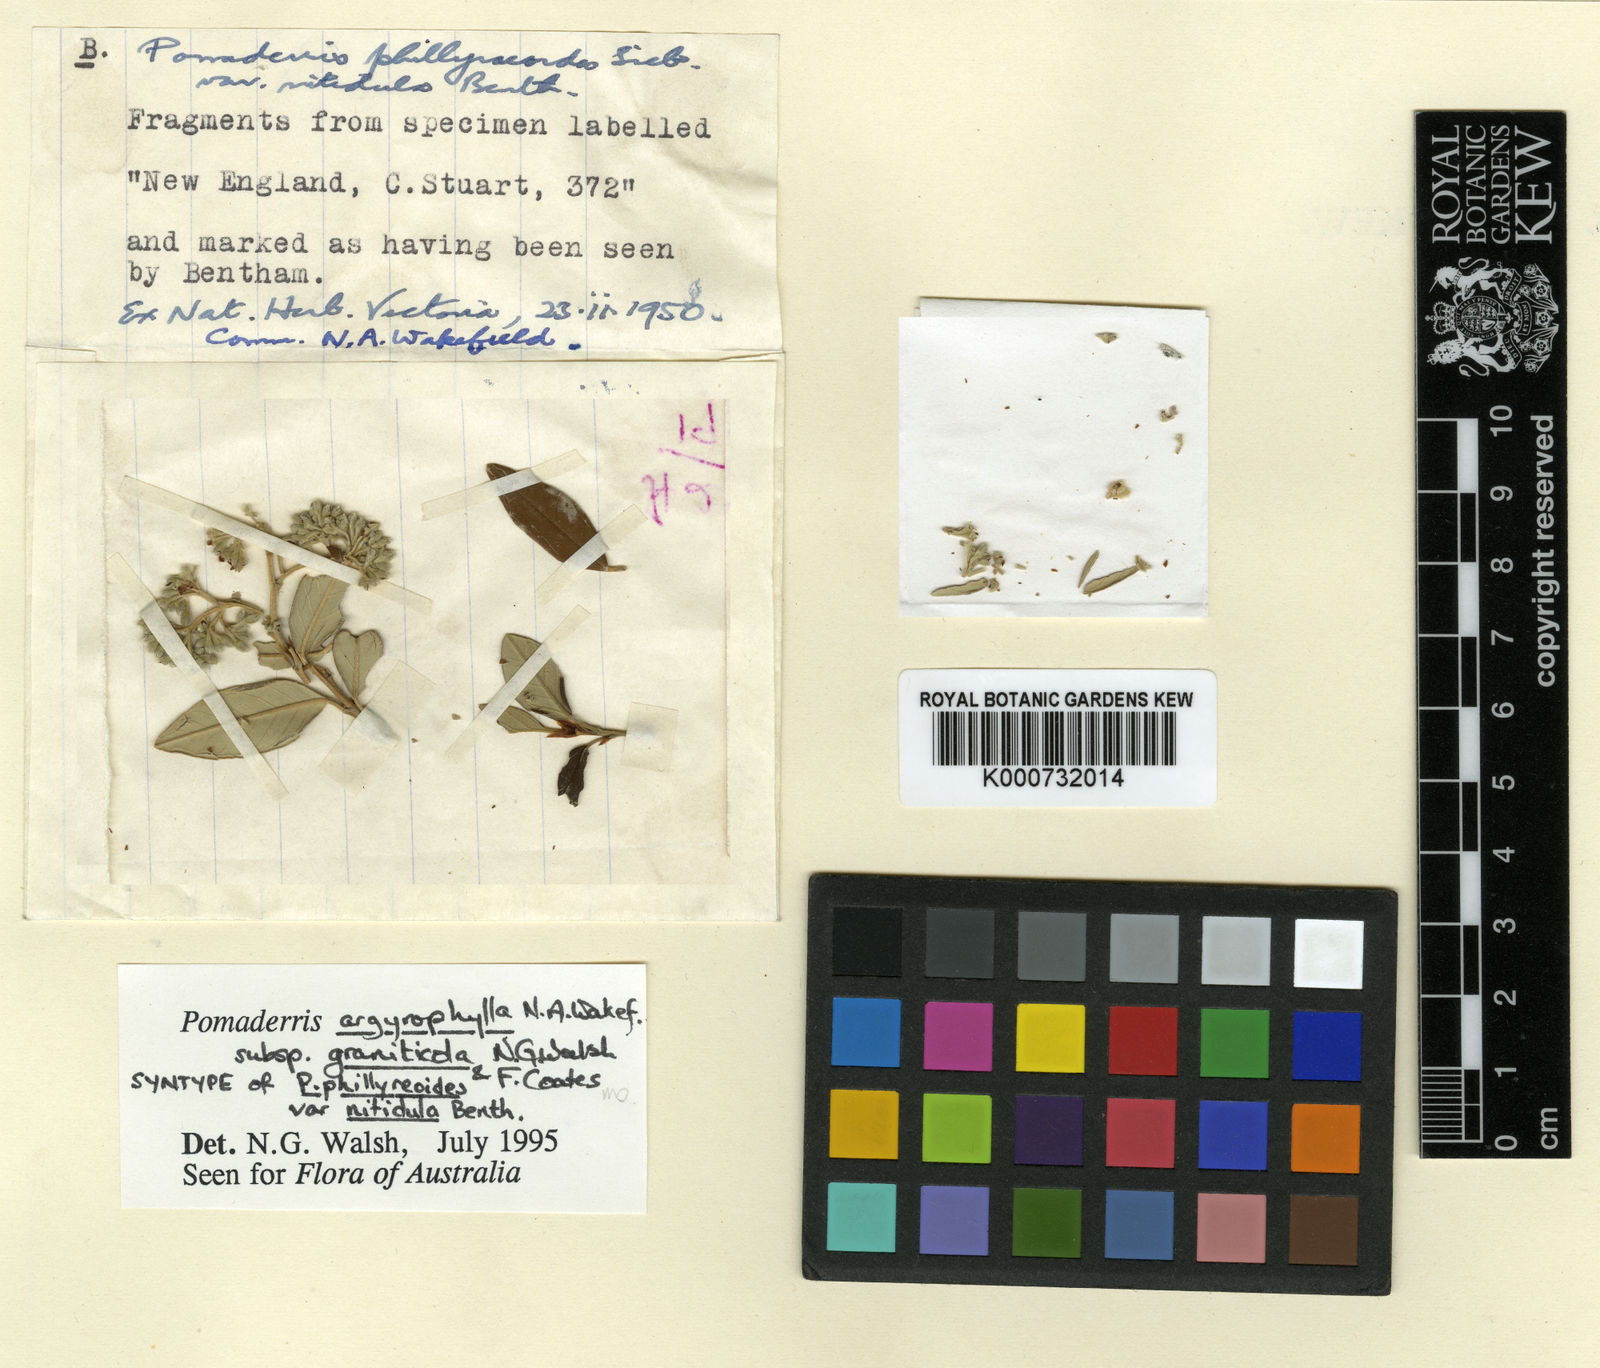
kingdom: Plantae
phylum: Tracheophyta
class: Magnoliopsida
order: Rosales
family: Rhamnaceae
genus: Pomaderris
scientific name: Pomaderris
